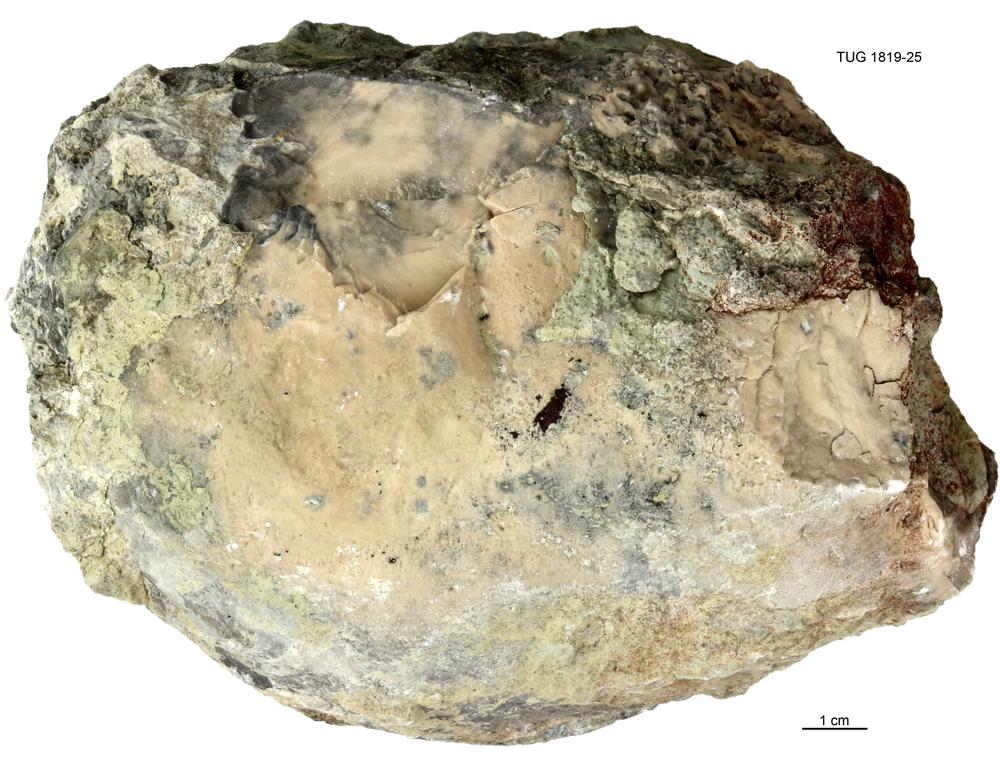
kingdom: Animalia
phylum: Porifera
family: Chaetetidae
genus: Solenopora
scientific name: Solenopora
